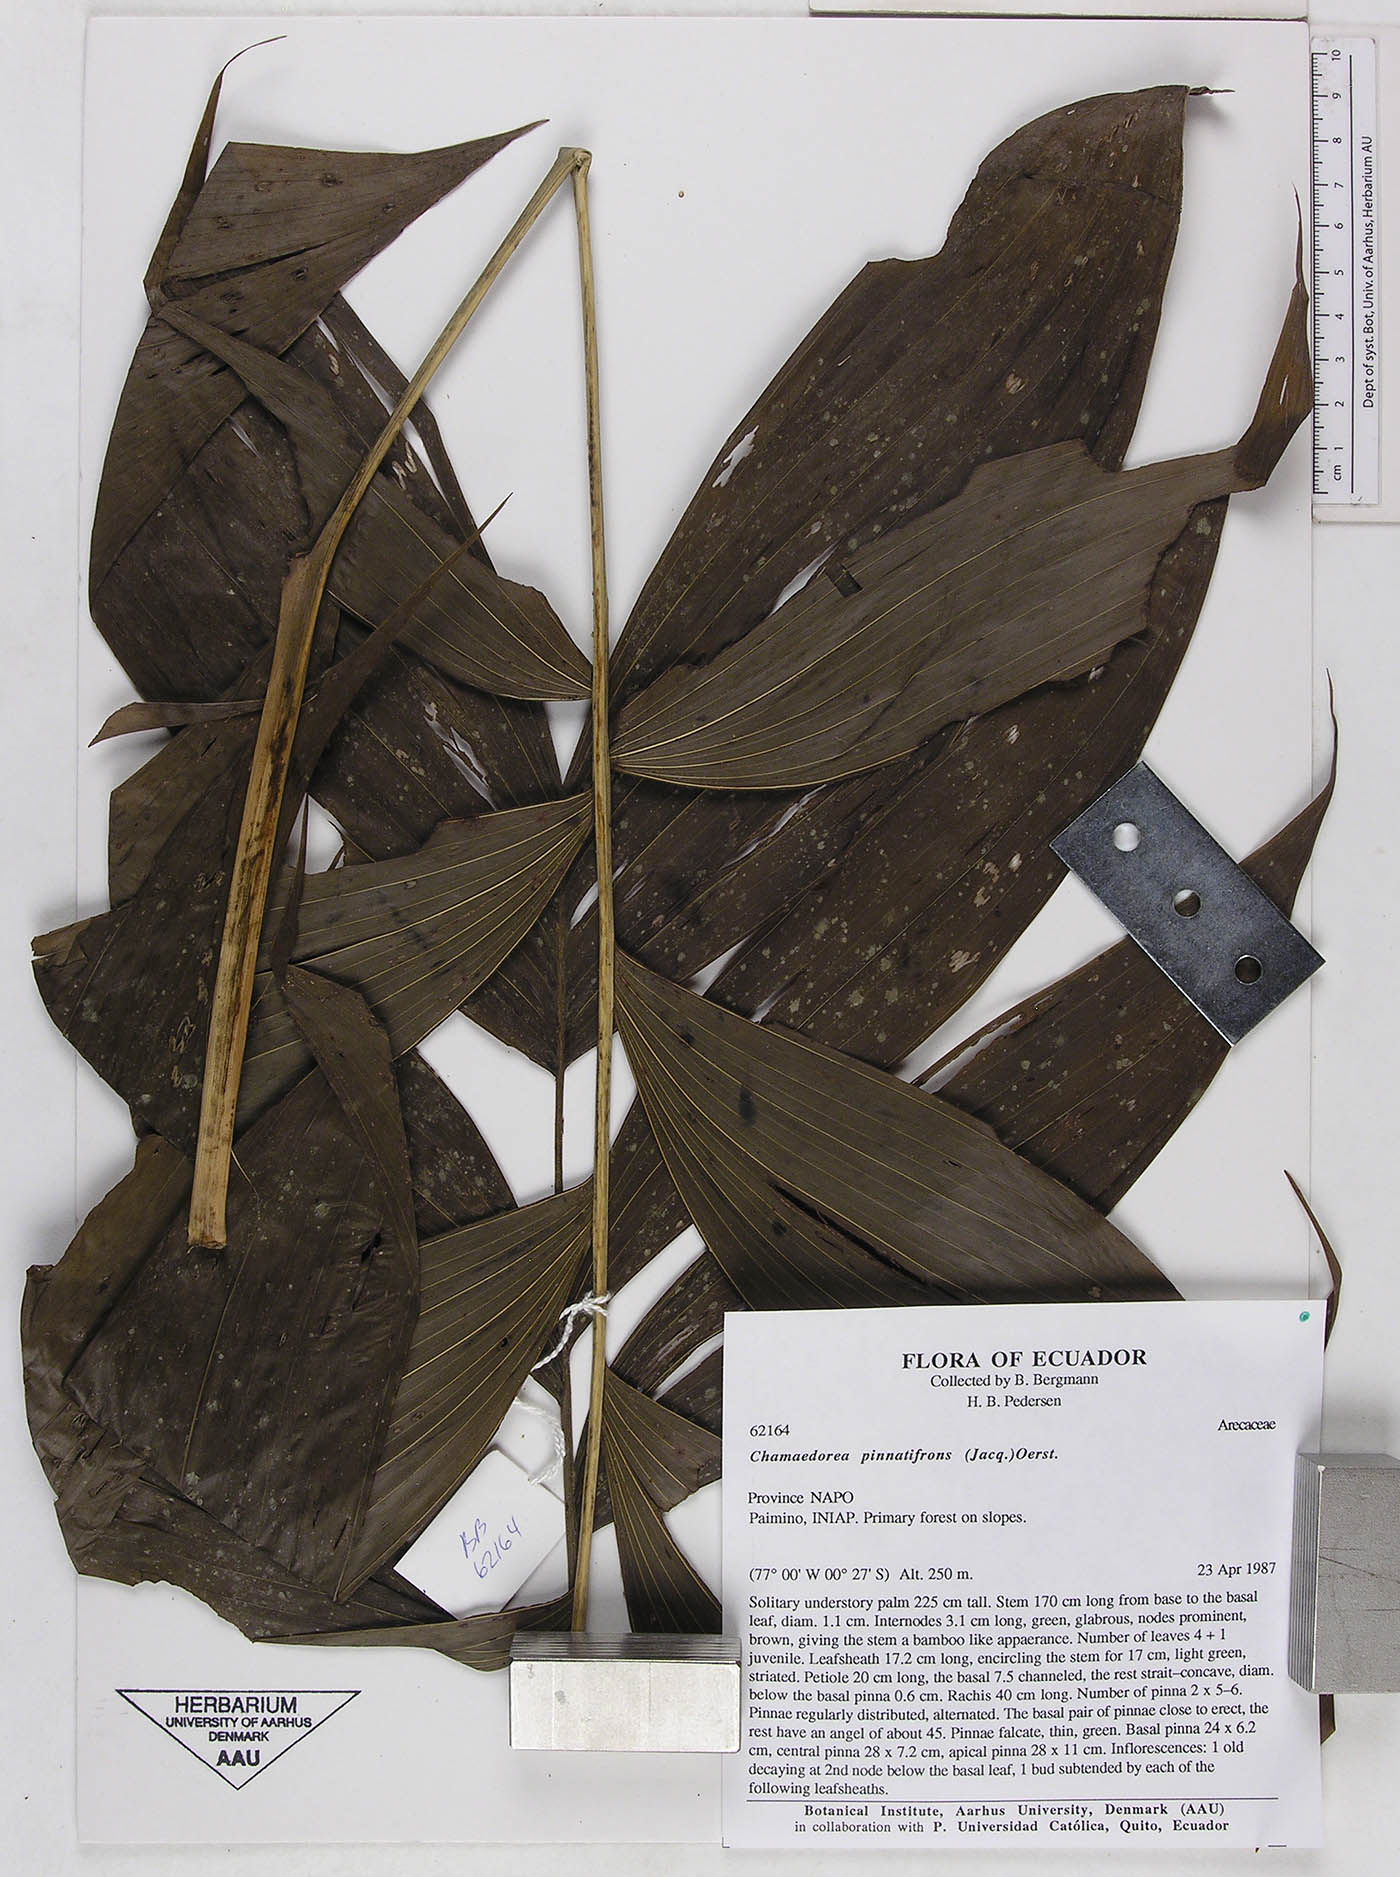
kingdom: Plantae
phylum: Tracheophyta
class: Liliopsida
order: Arecales
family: Arecaceae
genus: Chamaedorea
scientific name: Chamaedorea pinnatifrons
